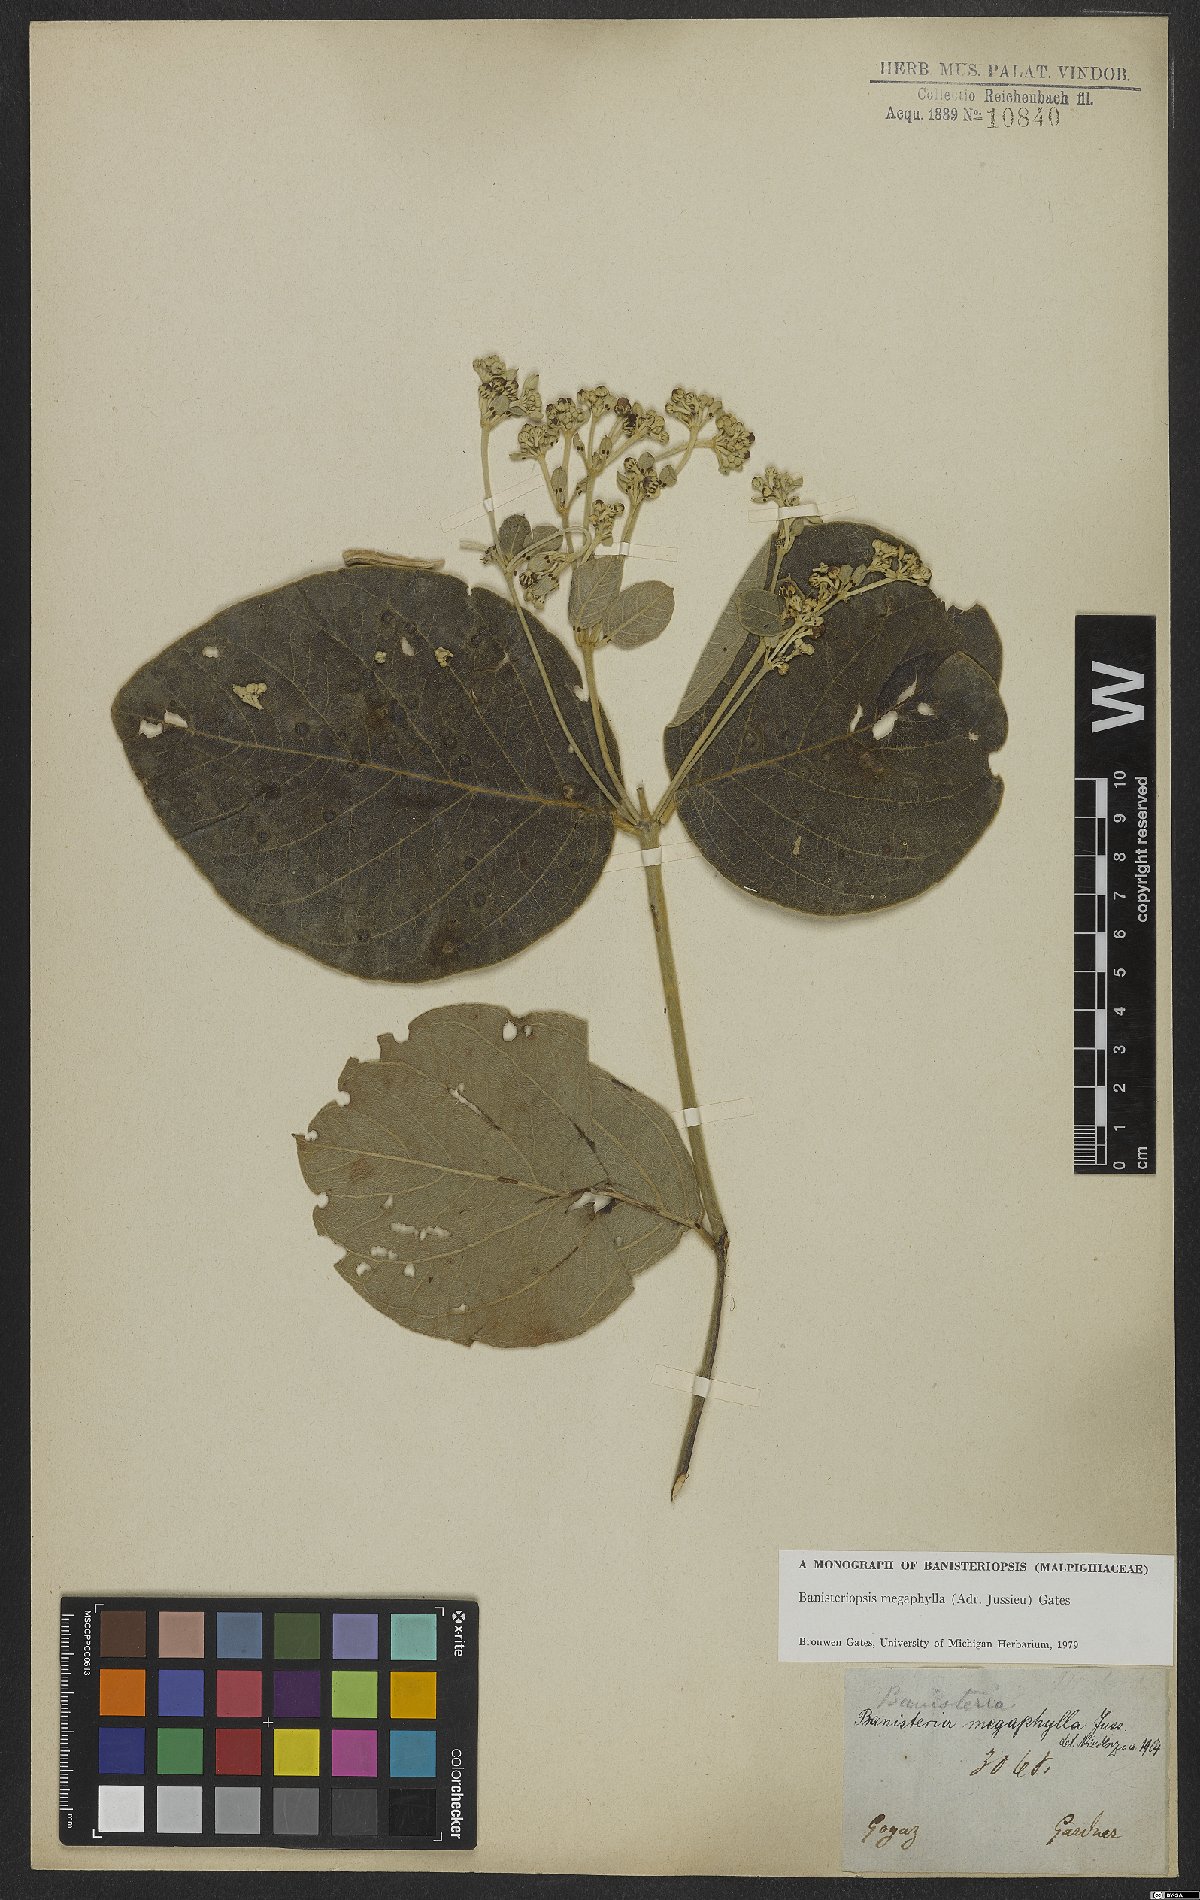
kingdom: Plantae
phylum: Tracheophyta
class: Magnoliopsida
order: Malpighiales
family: Malpighiaceae
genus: Banisteriopsis
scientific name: Banisteriopsis megaphylla
